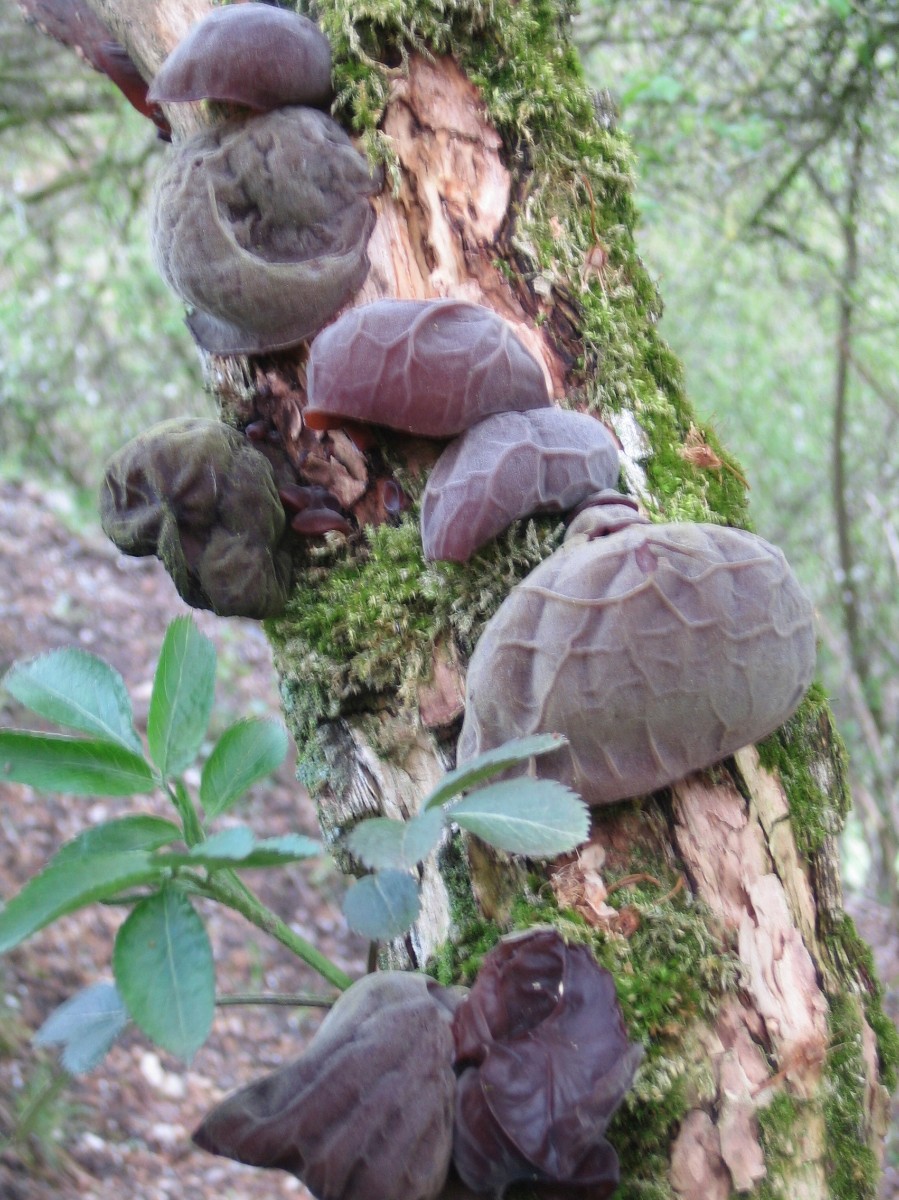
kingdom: Fungi
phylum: Basidiomycota
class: Agaricomycetes
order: Auriculariales
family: Auriculariaceae
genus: Auricularia
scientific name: Auricularia auricula-judae
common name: almindelig judasøre
